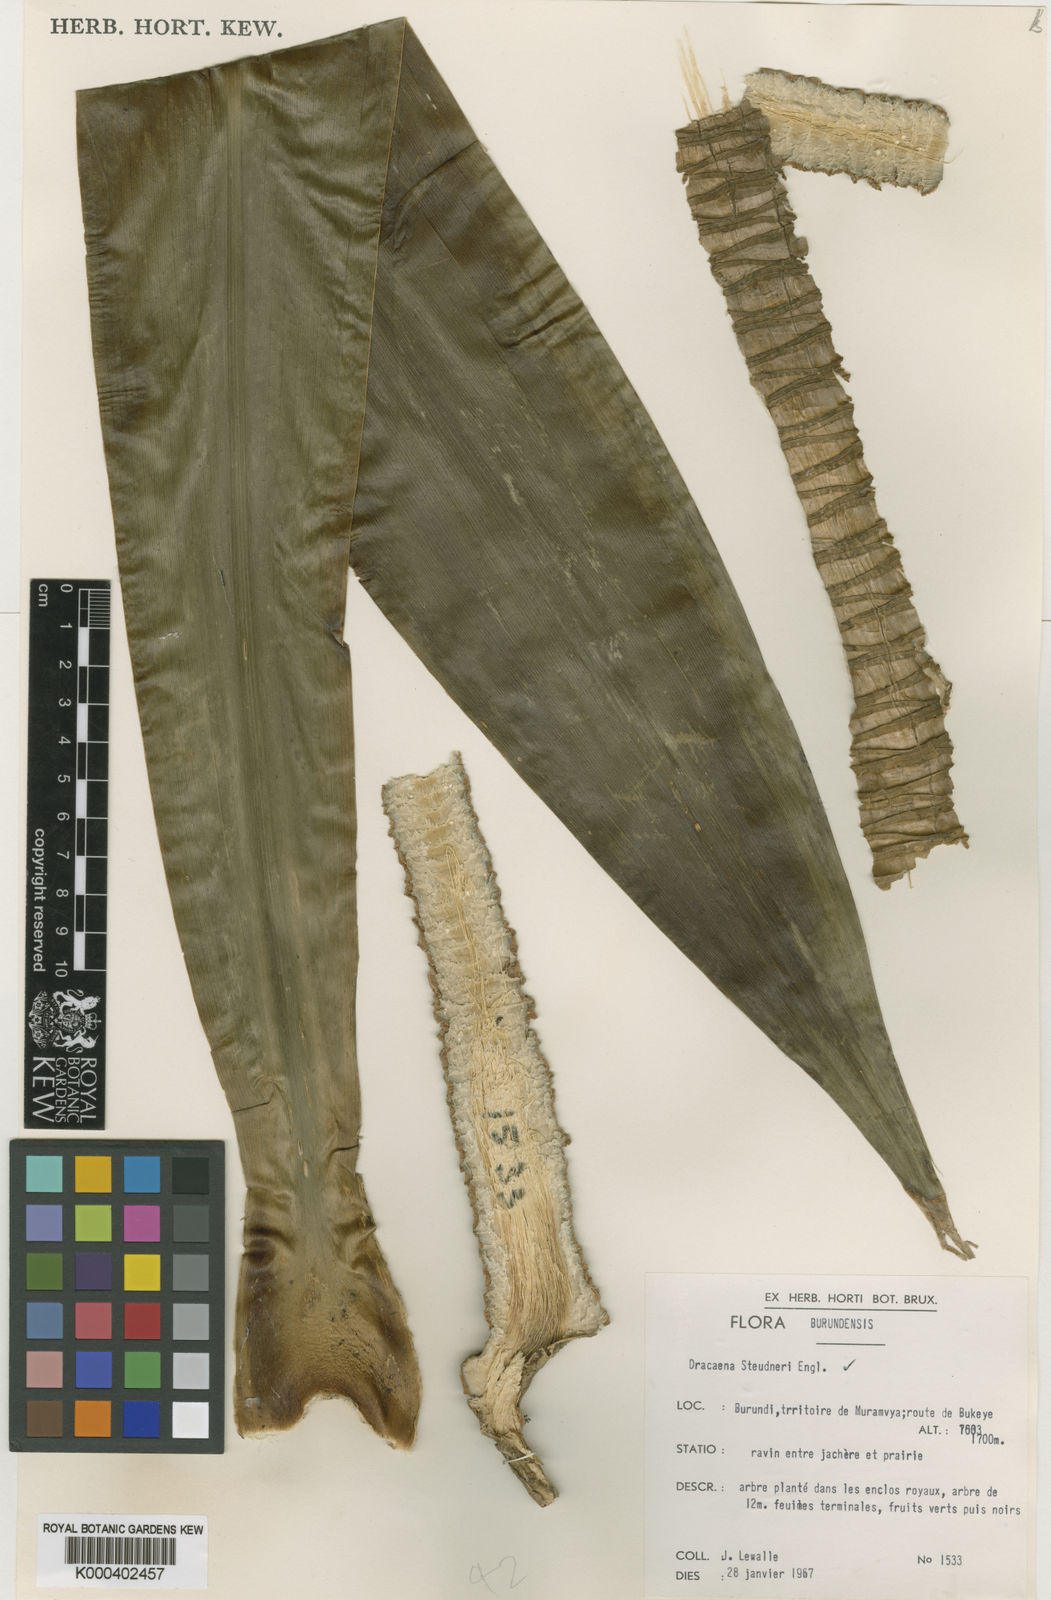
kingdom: Plantae
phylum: Tracheophyta
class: Liliopsida
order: Asparagales
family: Asparagaceae
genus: Dracaena
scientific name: Dracaena steudneri
